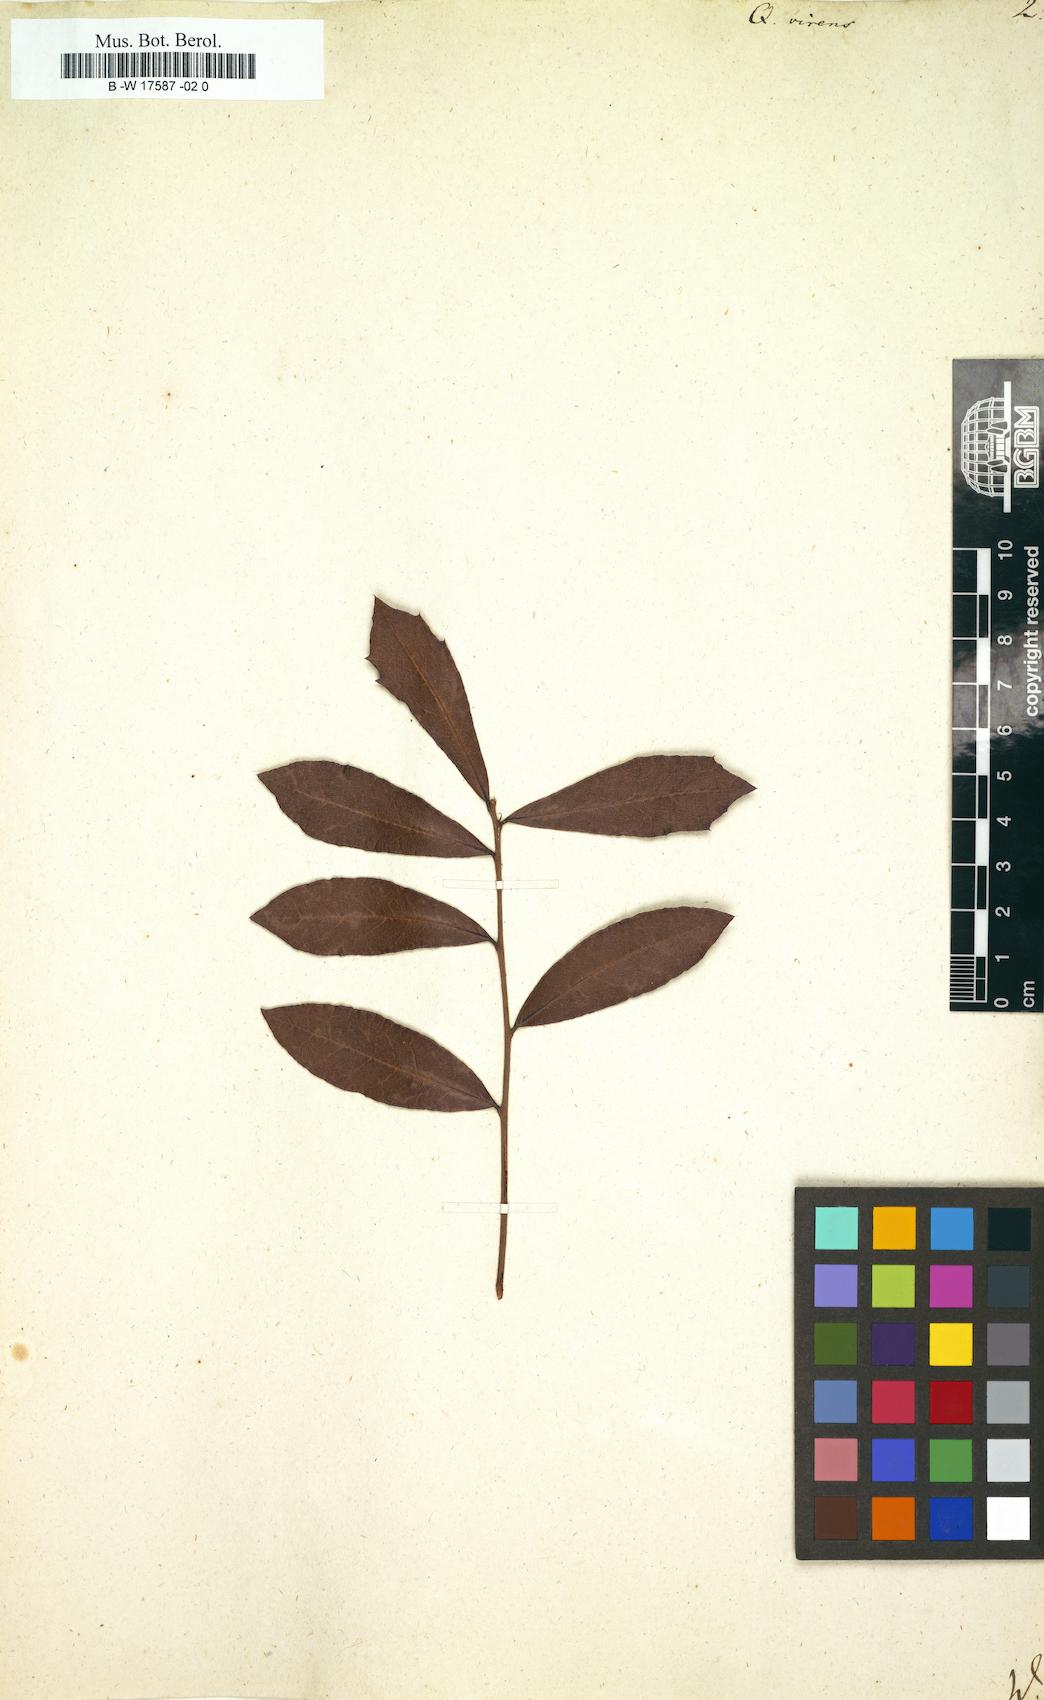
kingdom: Plantae
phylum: Tracheophyta
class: Magnoliopsida
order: Fagales
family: Fagaceae
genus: Quercus
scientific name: Quercus virginiana
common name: Southern live oak
